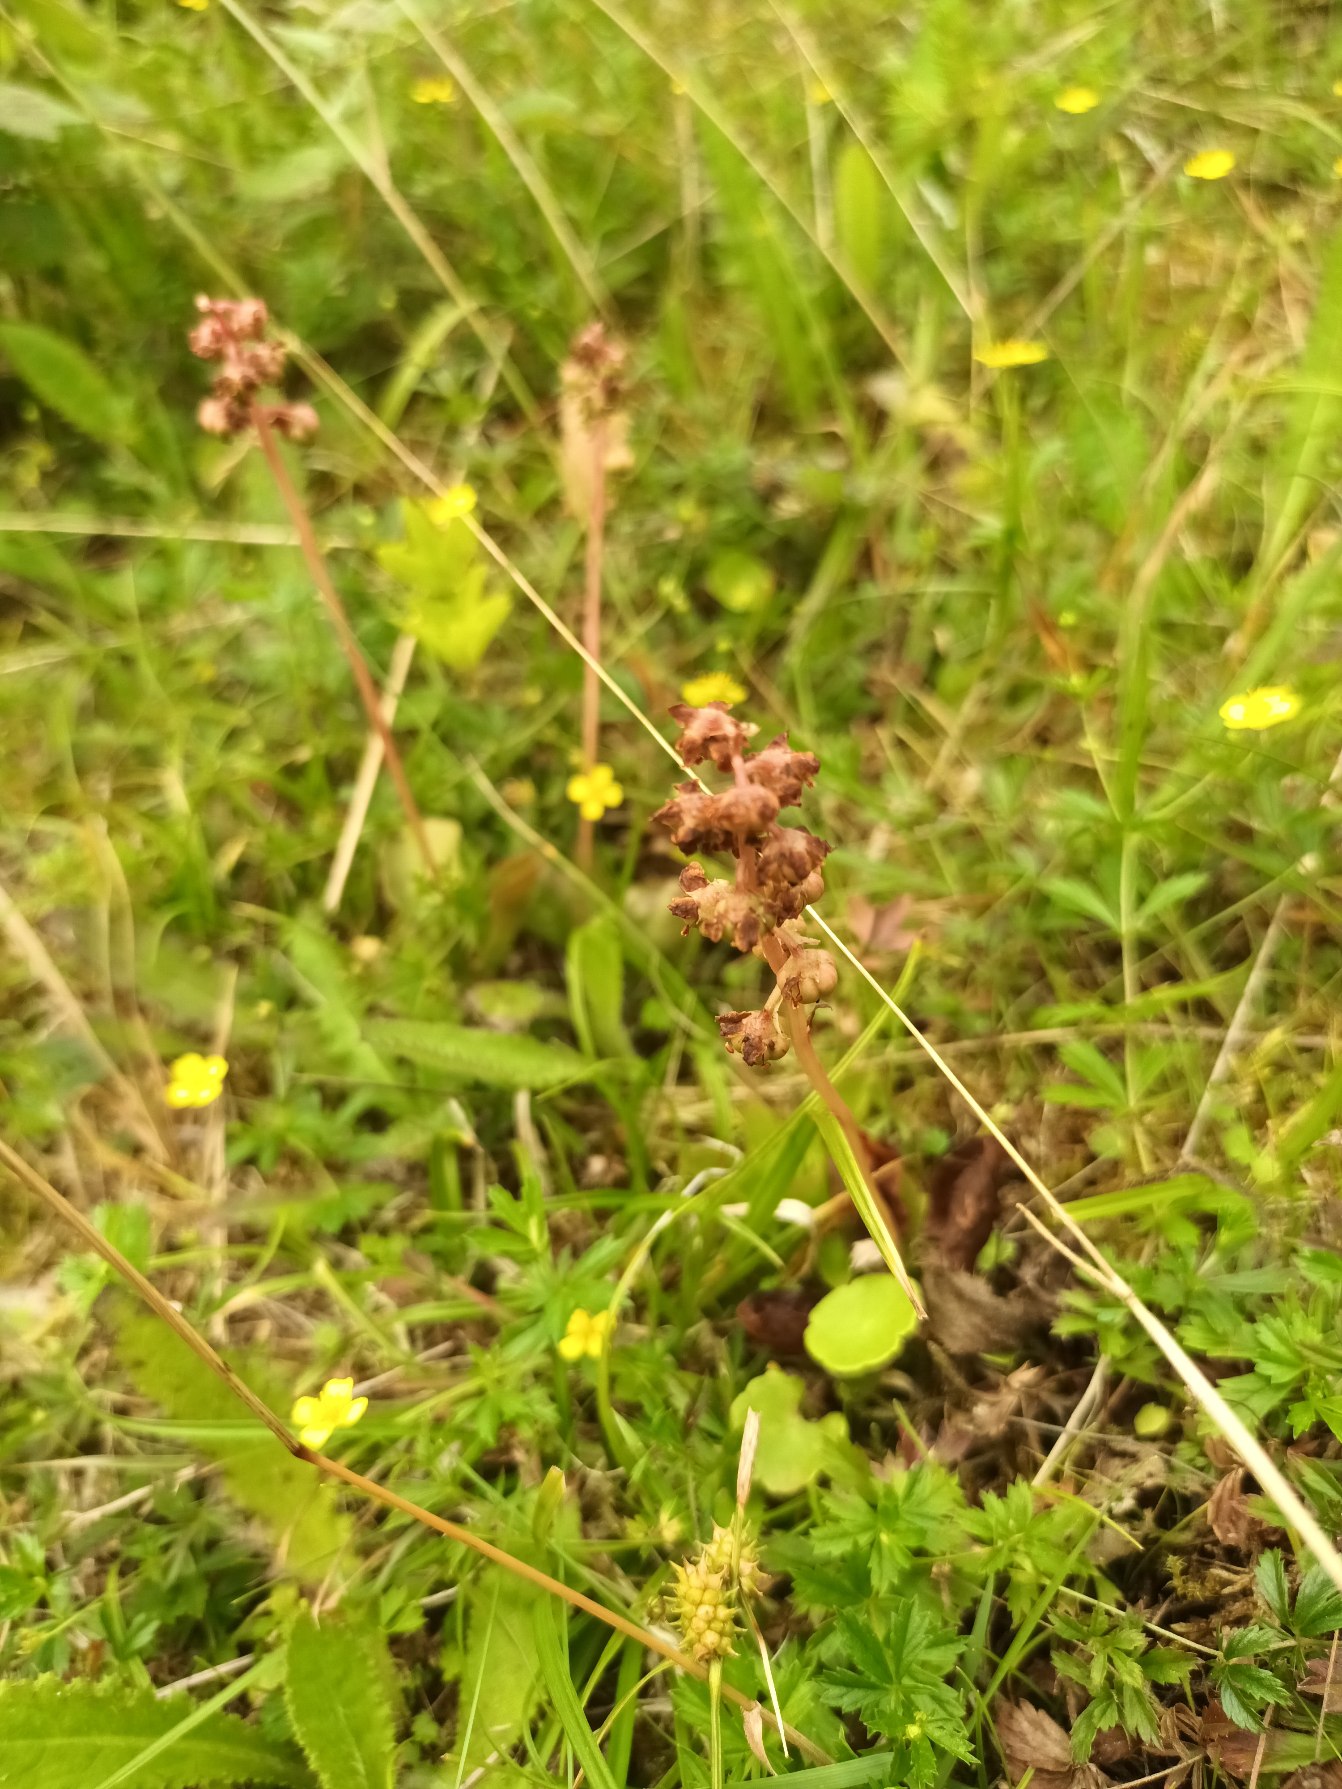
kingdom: Plantae
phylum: Tracheophyta
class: Magnoliopsida
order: Ericales
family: Ericaceae
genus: Pyrola
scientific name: Pyrola minor
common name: Liden vintergrøn
